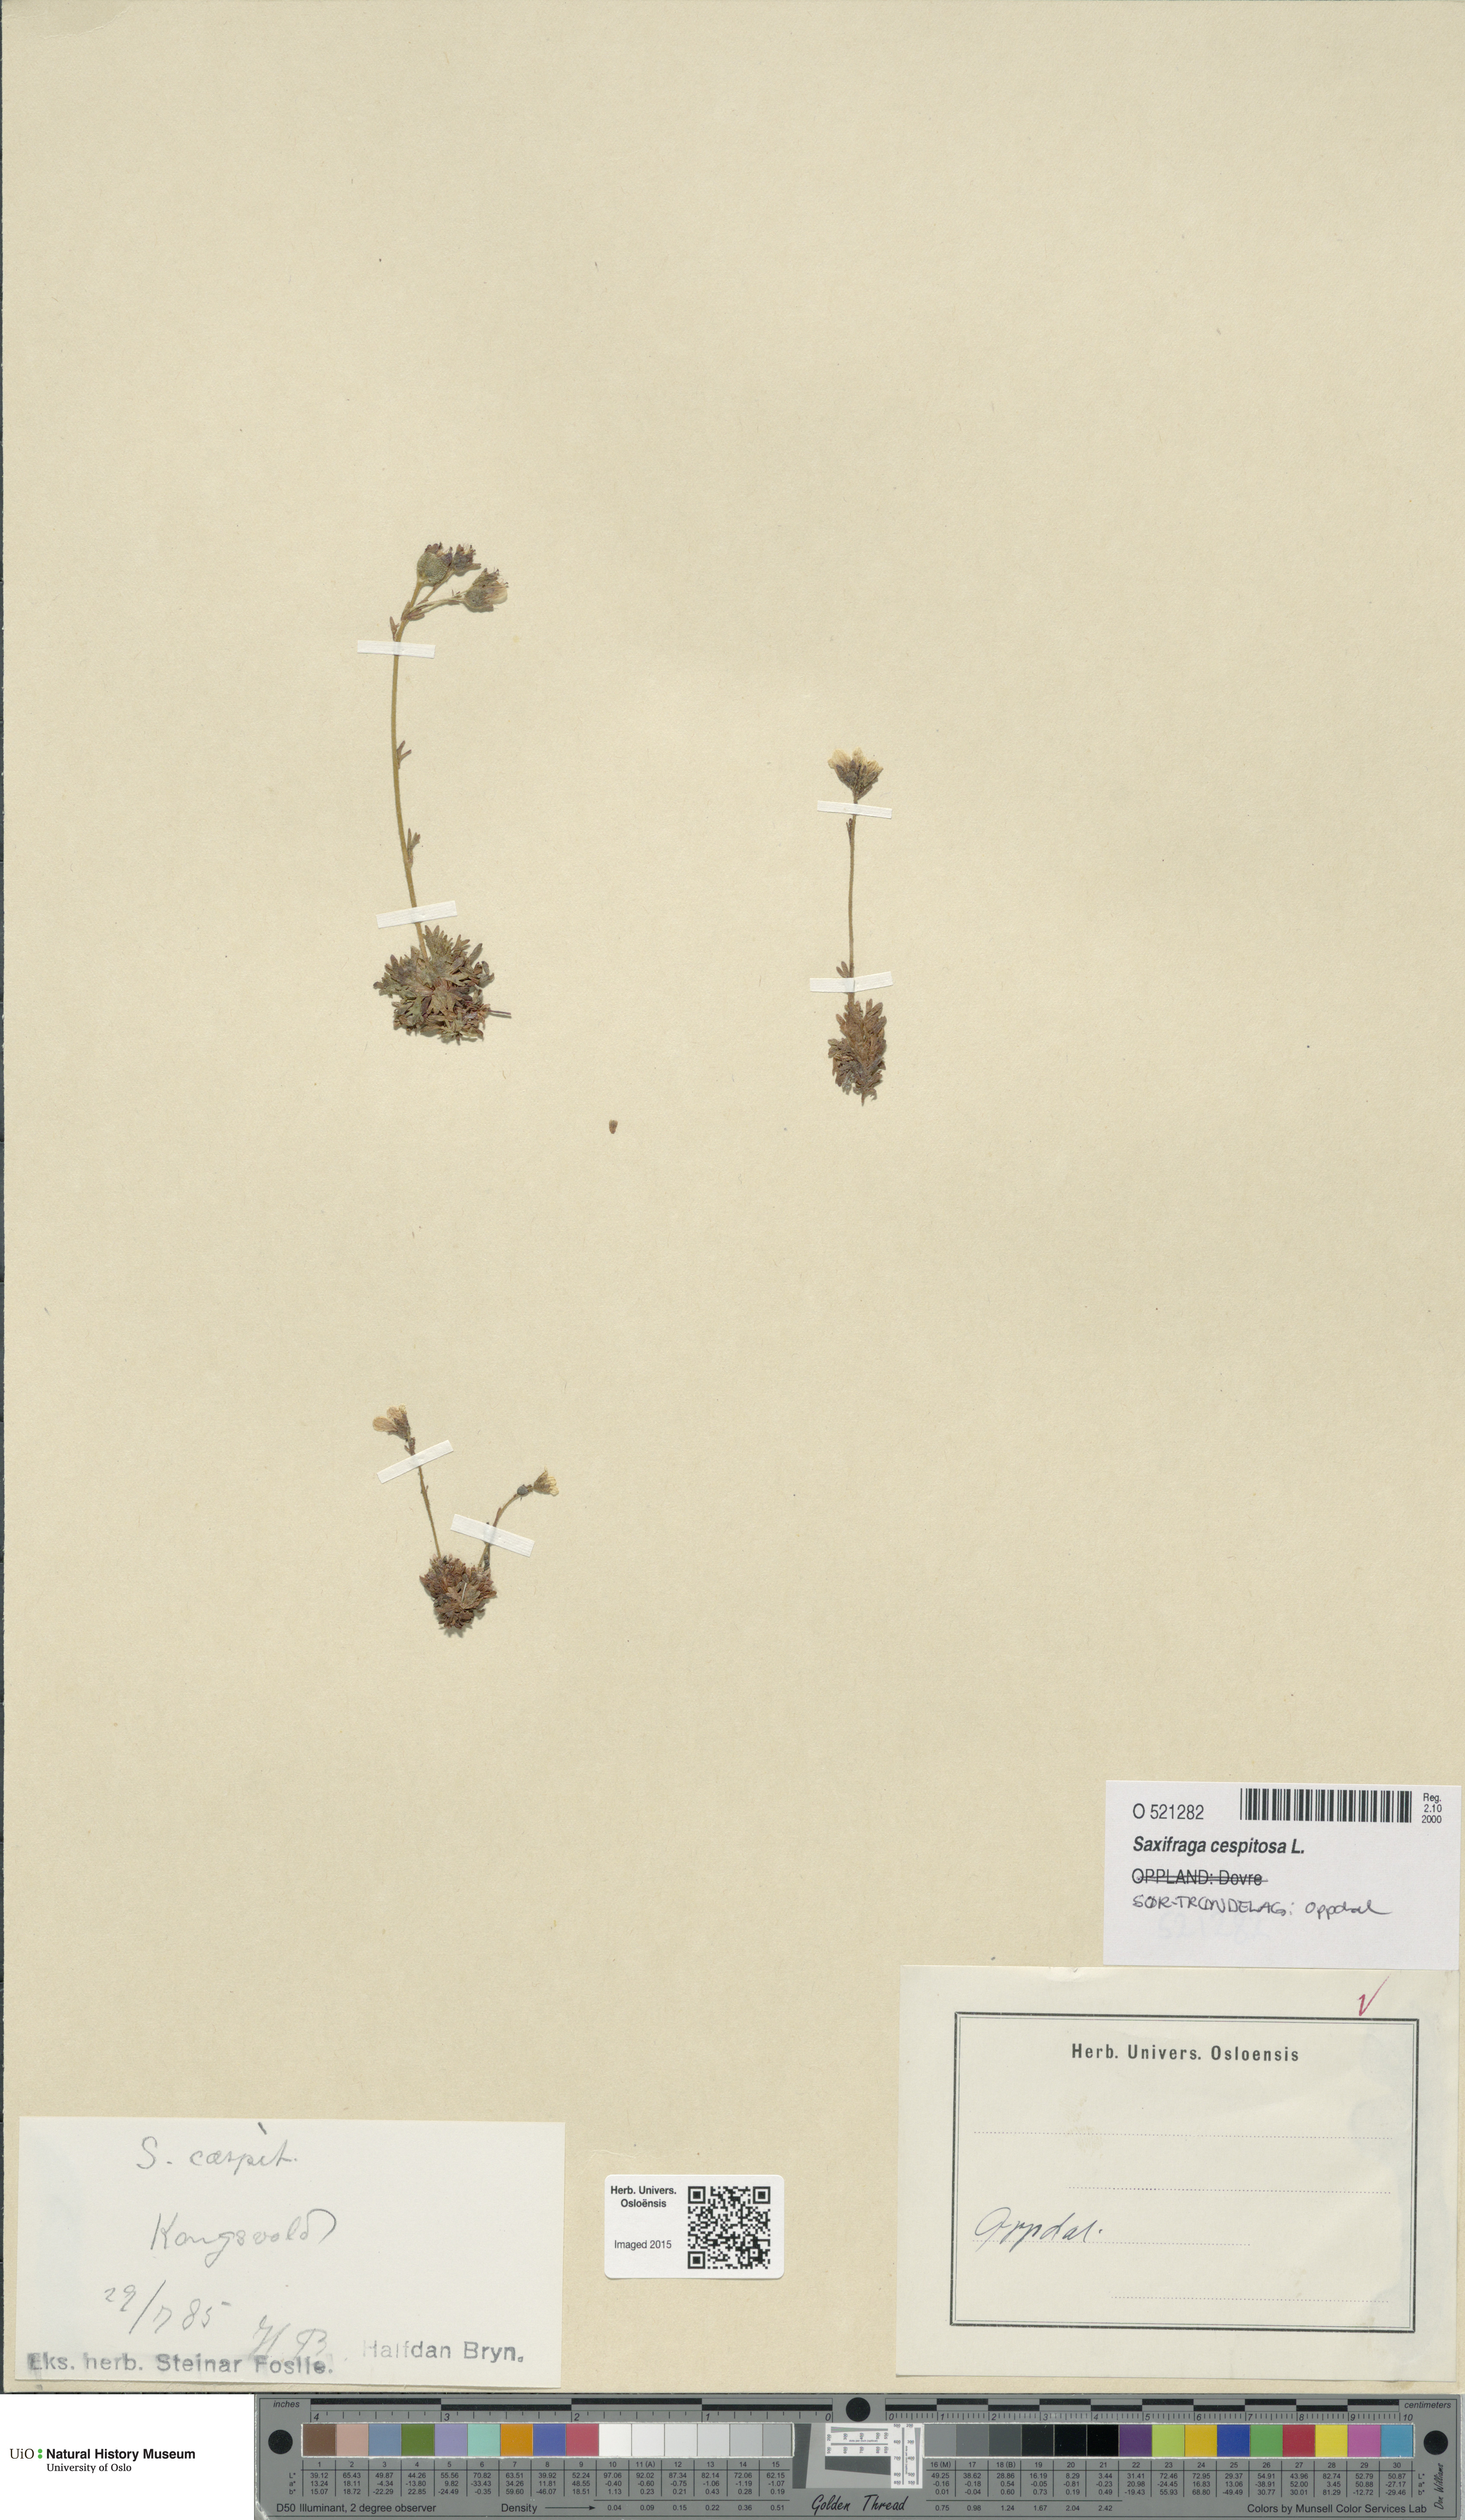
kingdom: Plantae
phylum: Tracheophyta
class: Magnoliopsida
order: Saxifragales
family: Saxifragaceae
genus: Saxifraga
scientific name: Saxifraga cespitosa
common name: Tufted saxifrage
